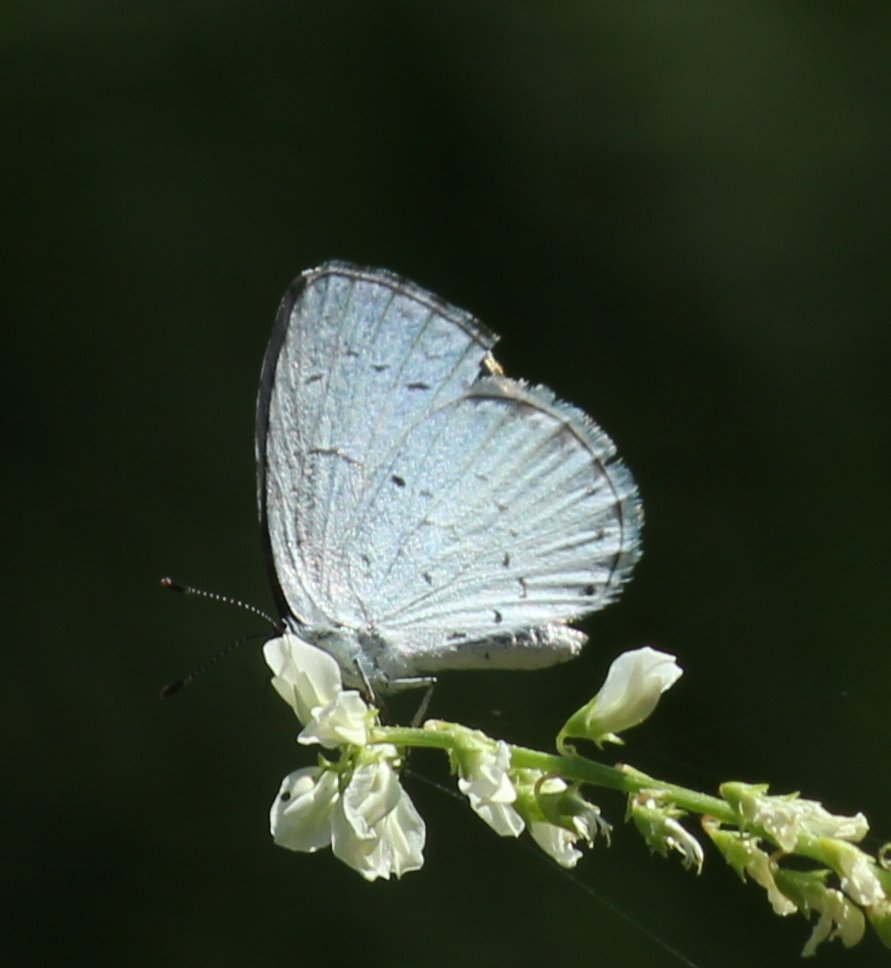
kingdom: Animalia
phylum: Arthropoda
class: Insecta
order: Lepidoptera
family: Lycaenidae
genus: Celastrina
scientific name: Celastrina
